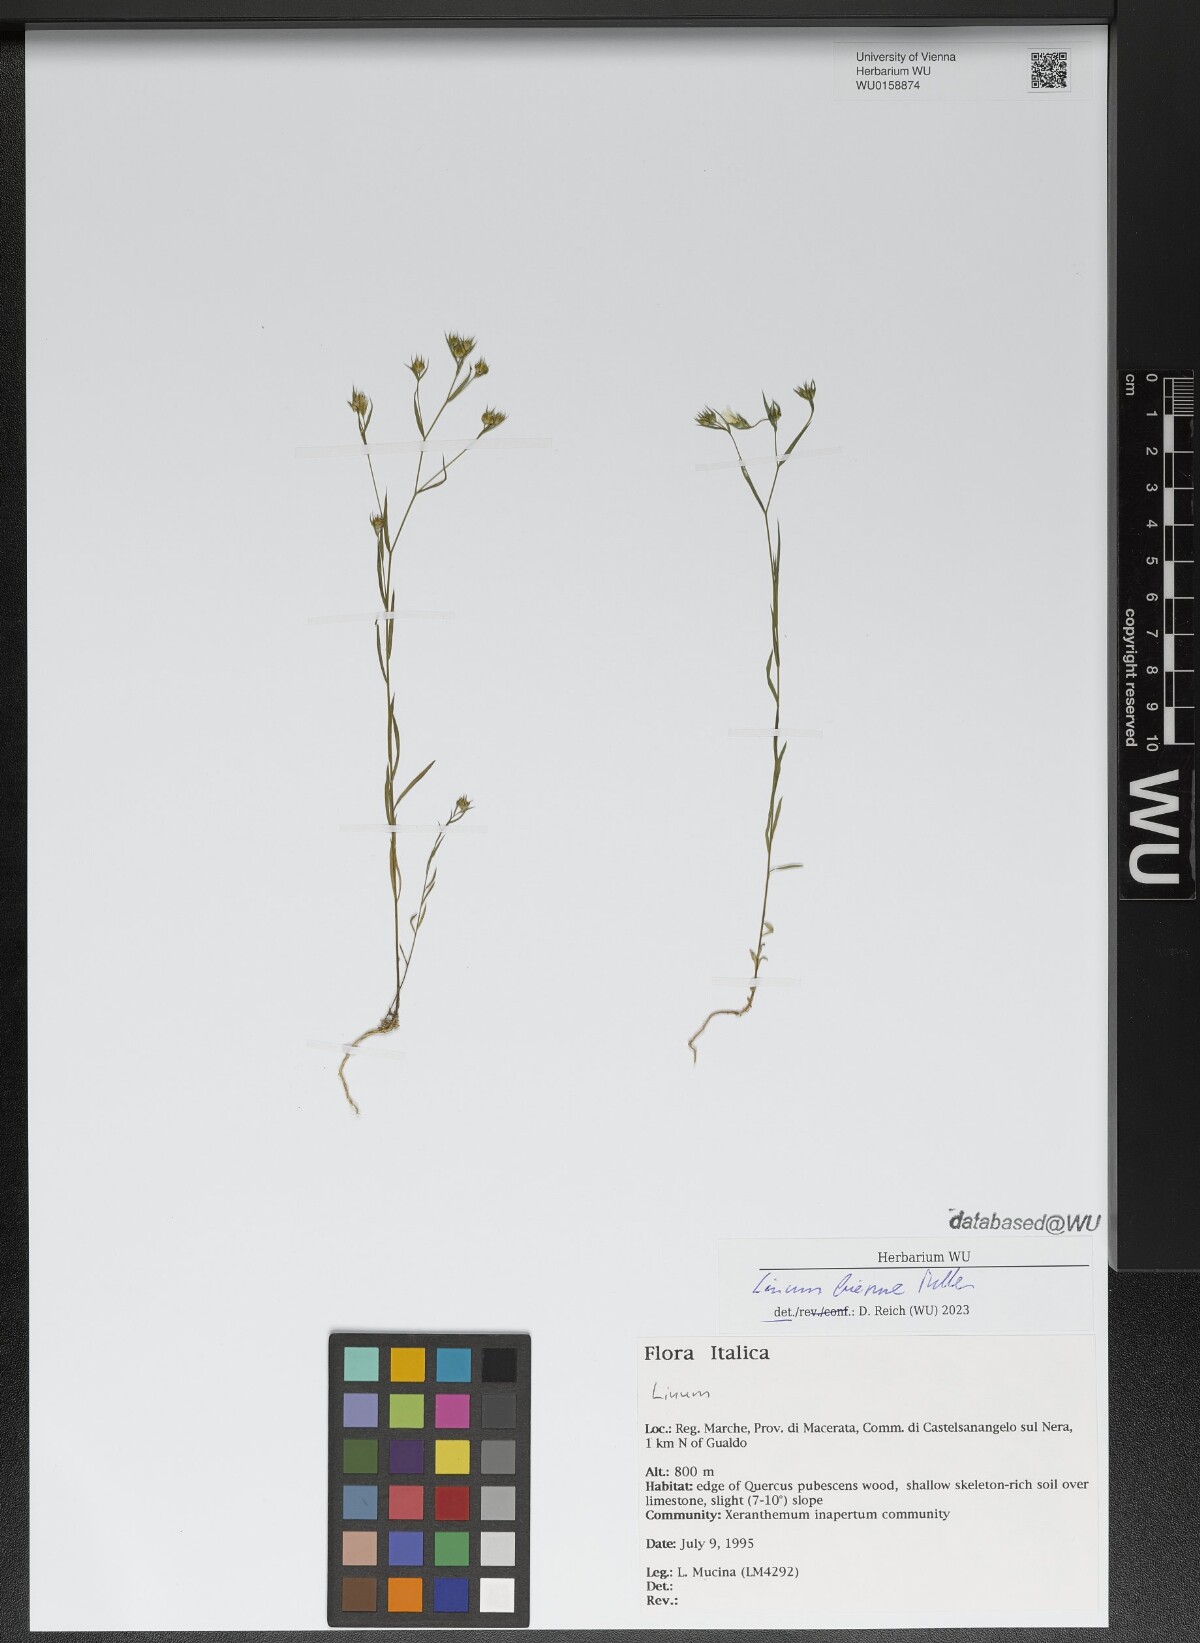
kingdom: Plantae
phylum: Tracheophyta
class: Magnoliopsida
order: Malpighiales
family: Linaceae
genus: Linum
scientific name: Linum bienne
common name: Pale flax
